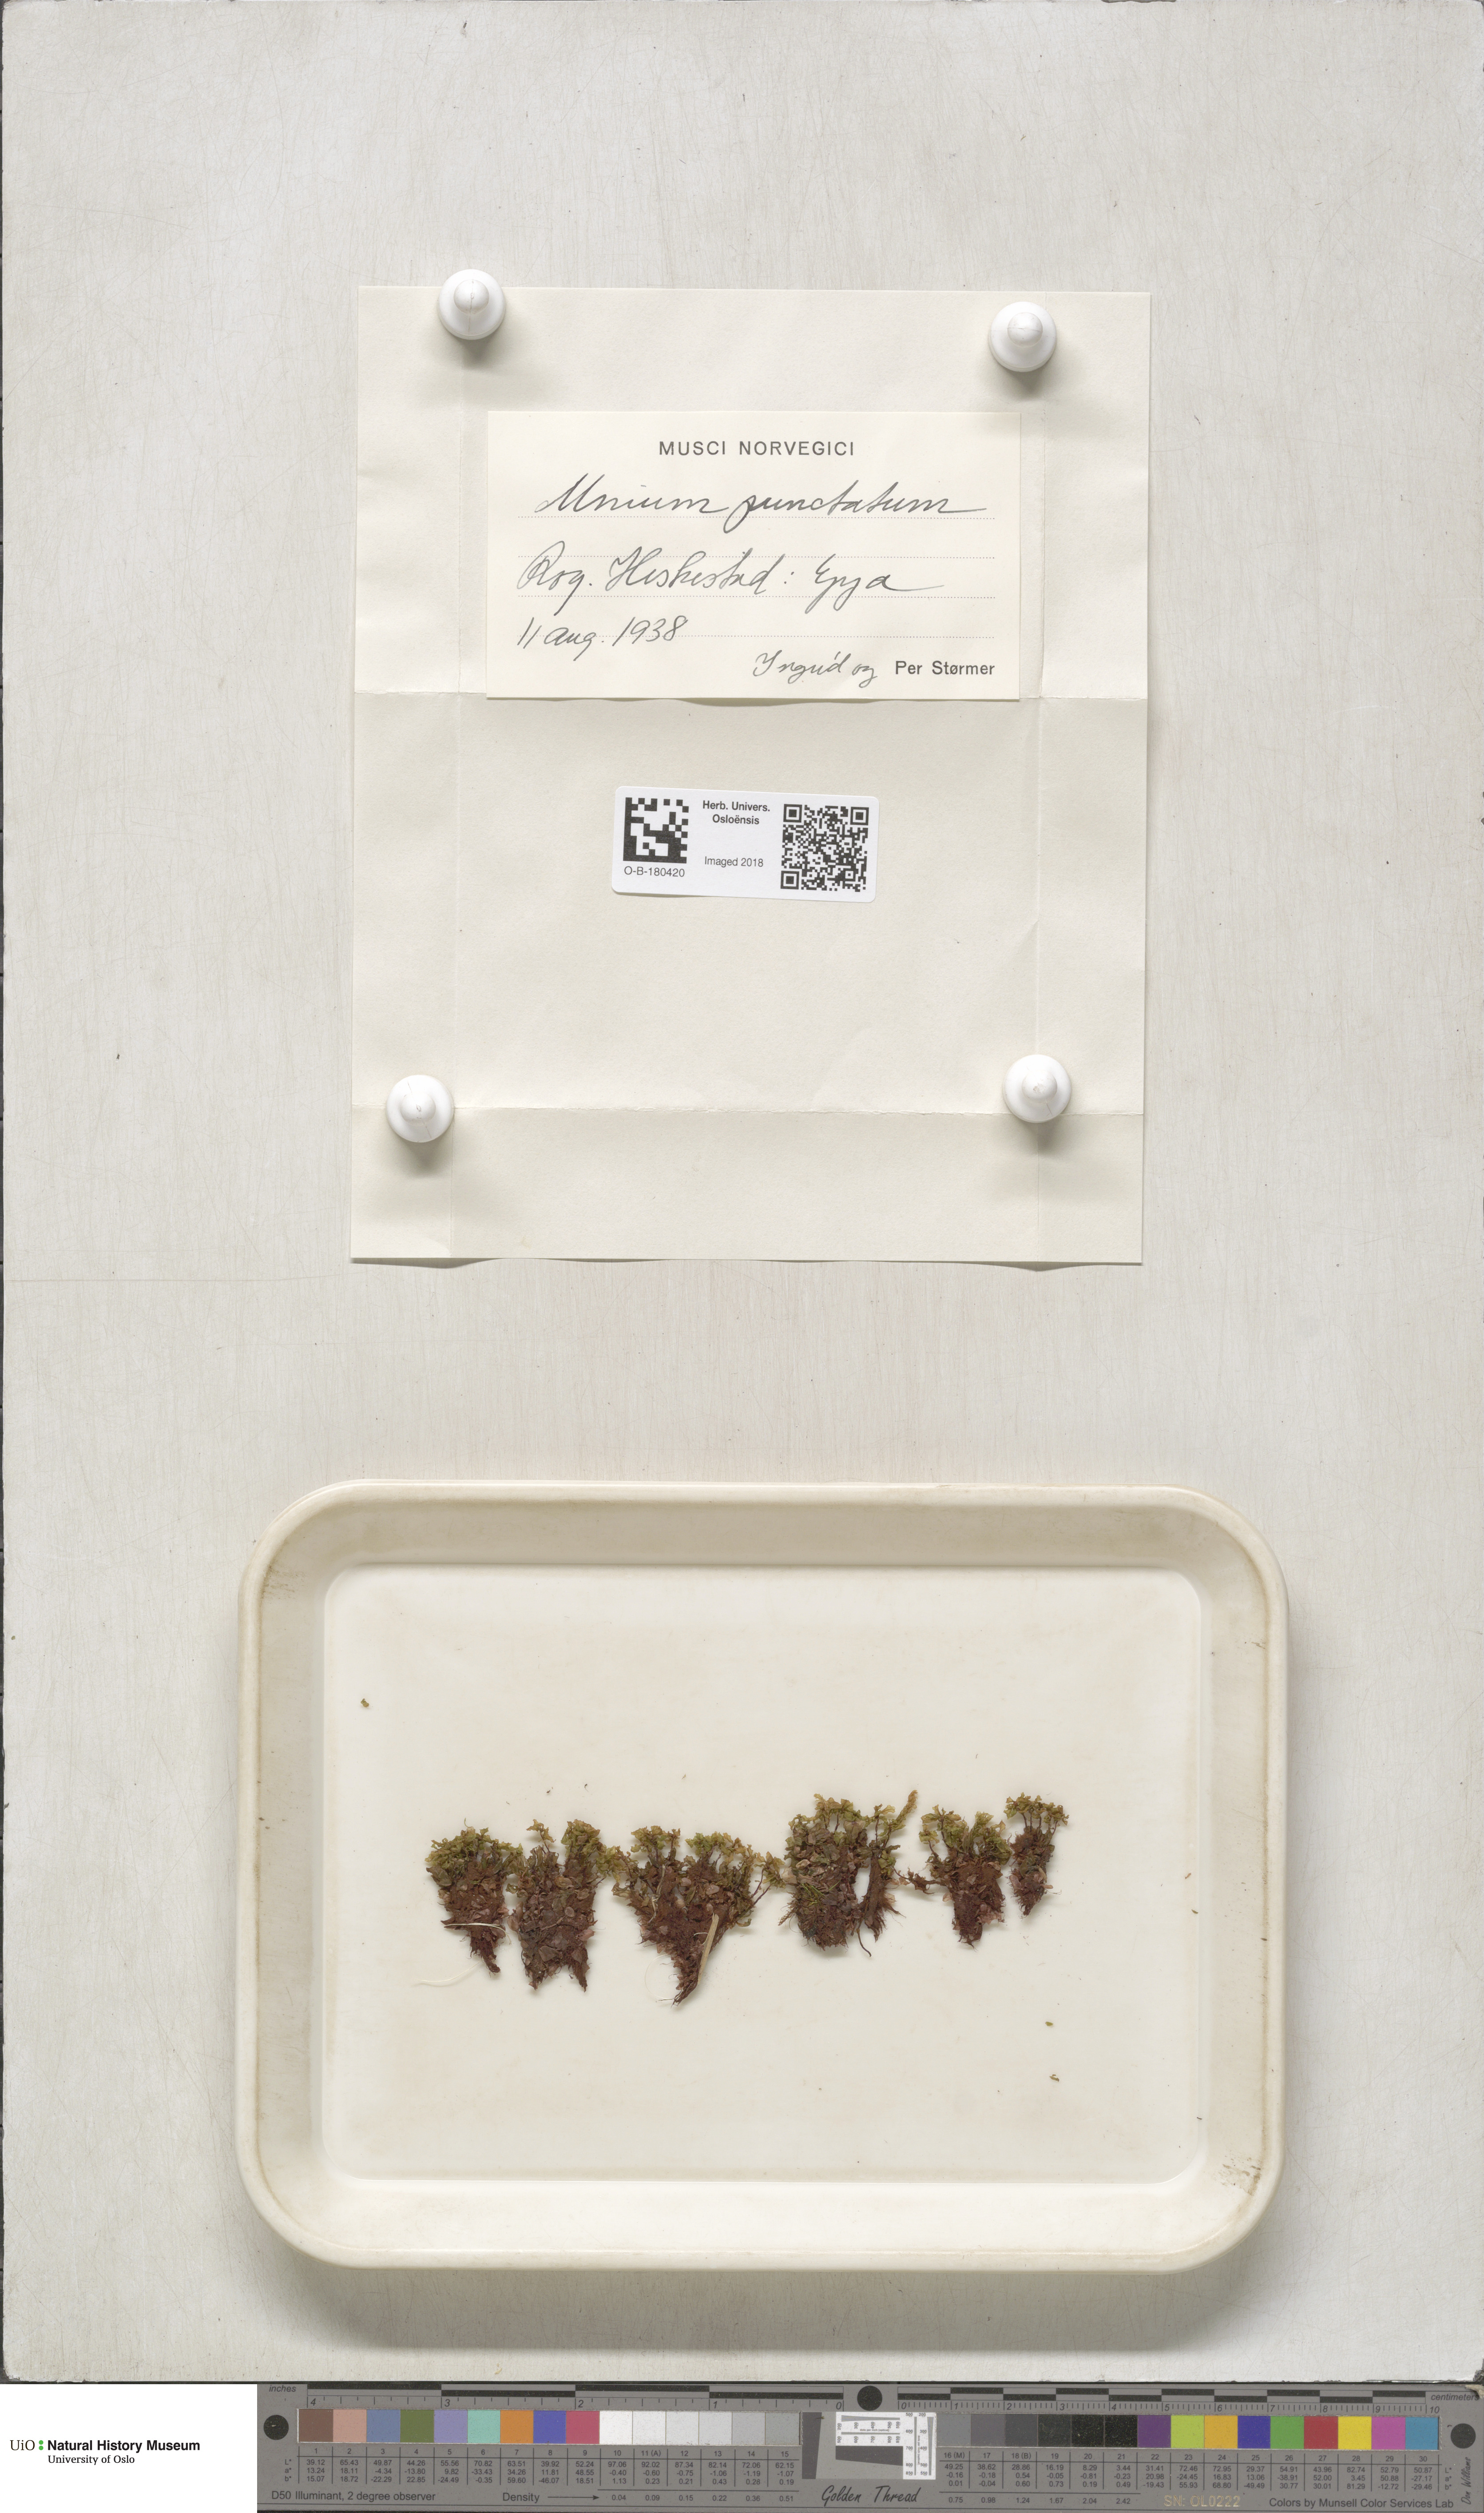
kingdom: Plantae
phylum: Bryophyta
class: Bryopsida
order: Bryales
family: Mniaceae
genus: Rhizomnium
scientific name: Rhizomnium punctatum
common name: Dotted leafy moss
